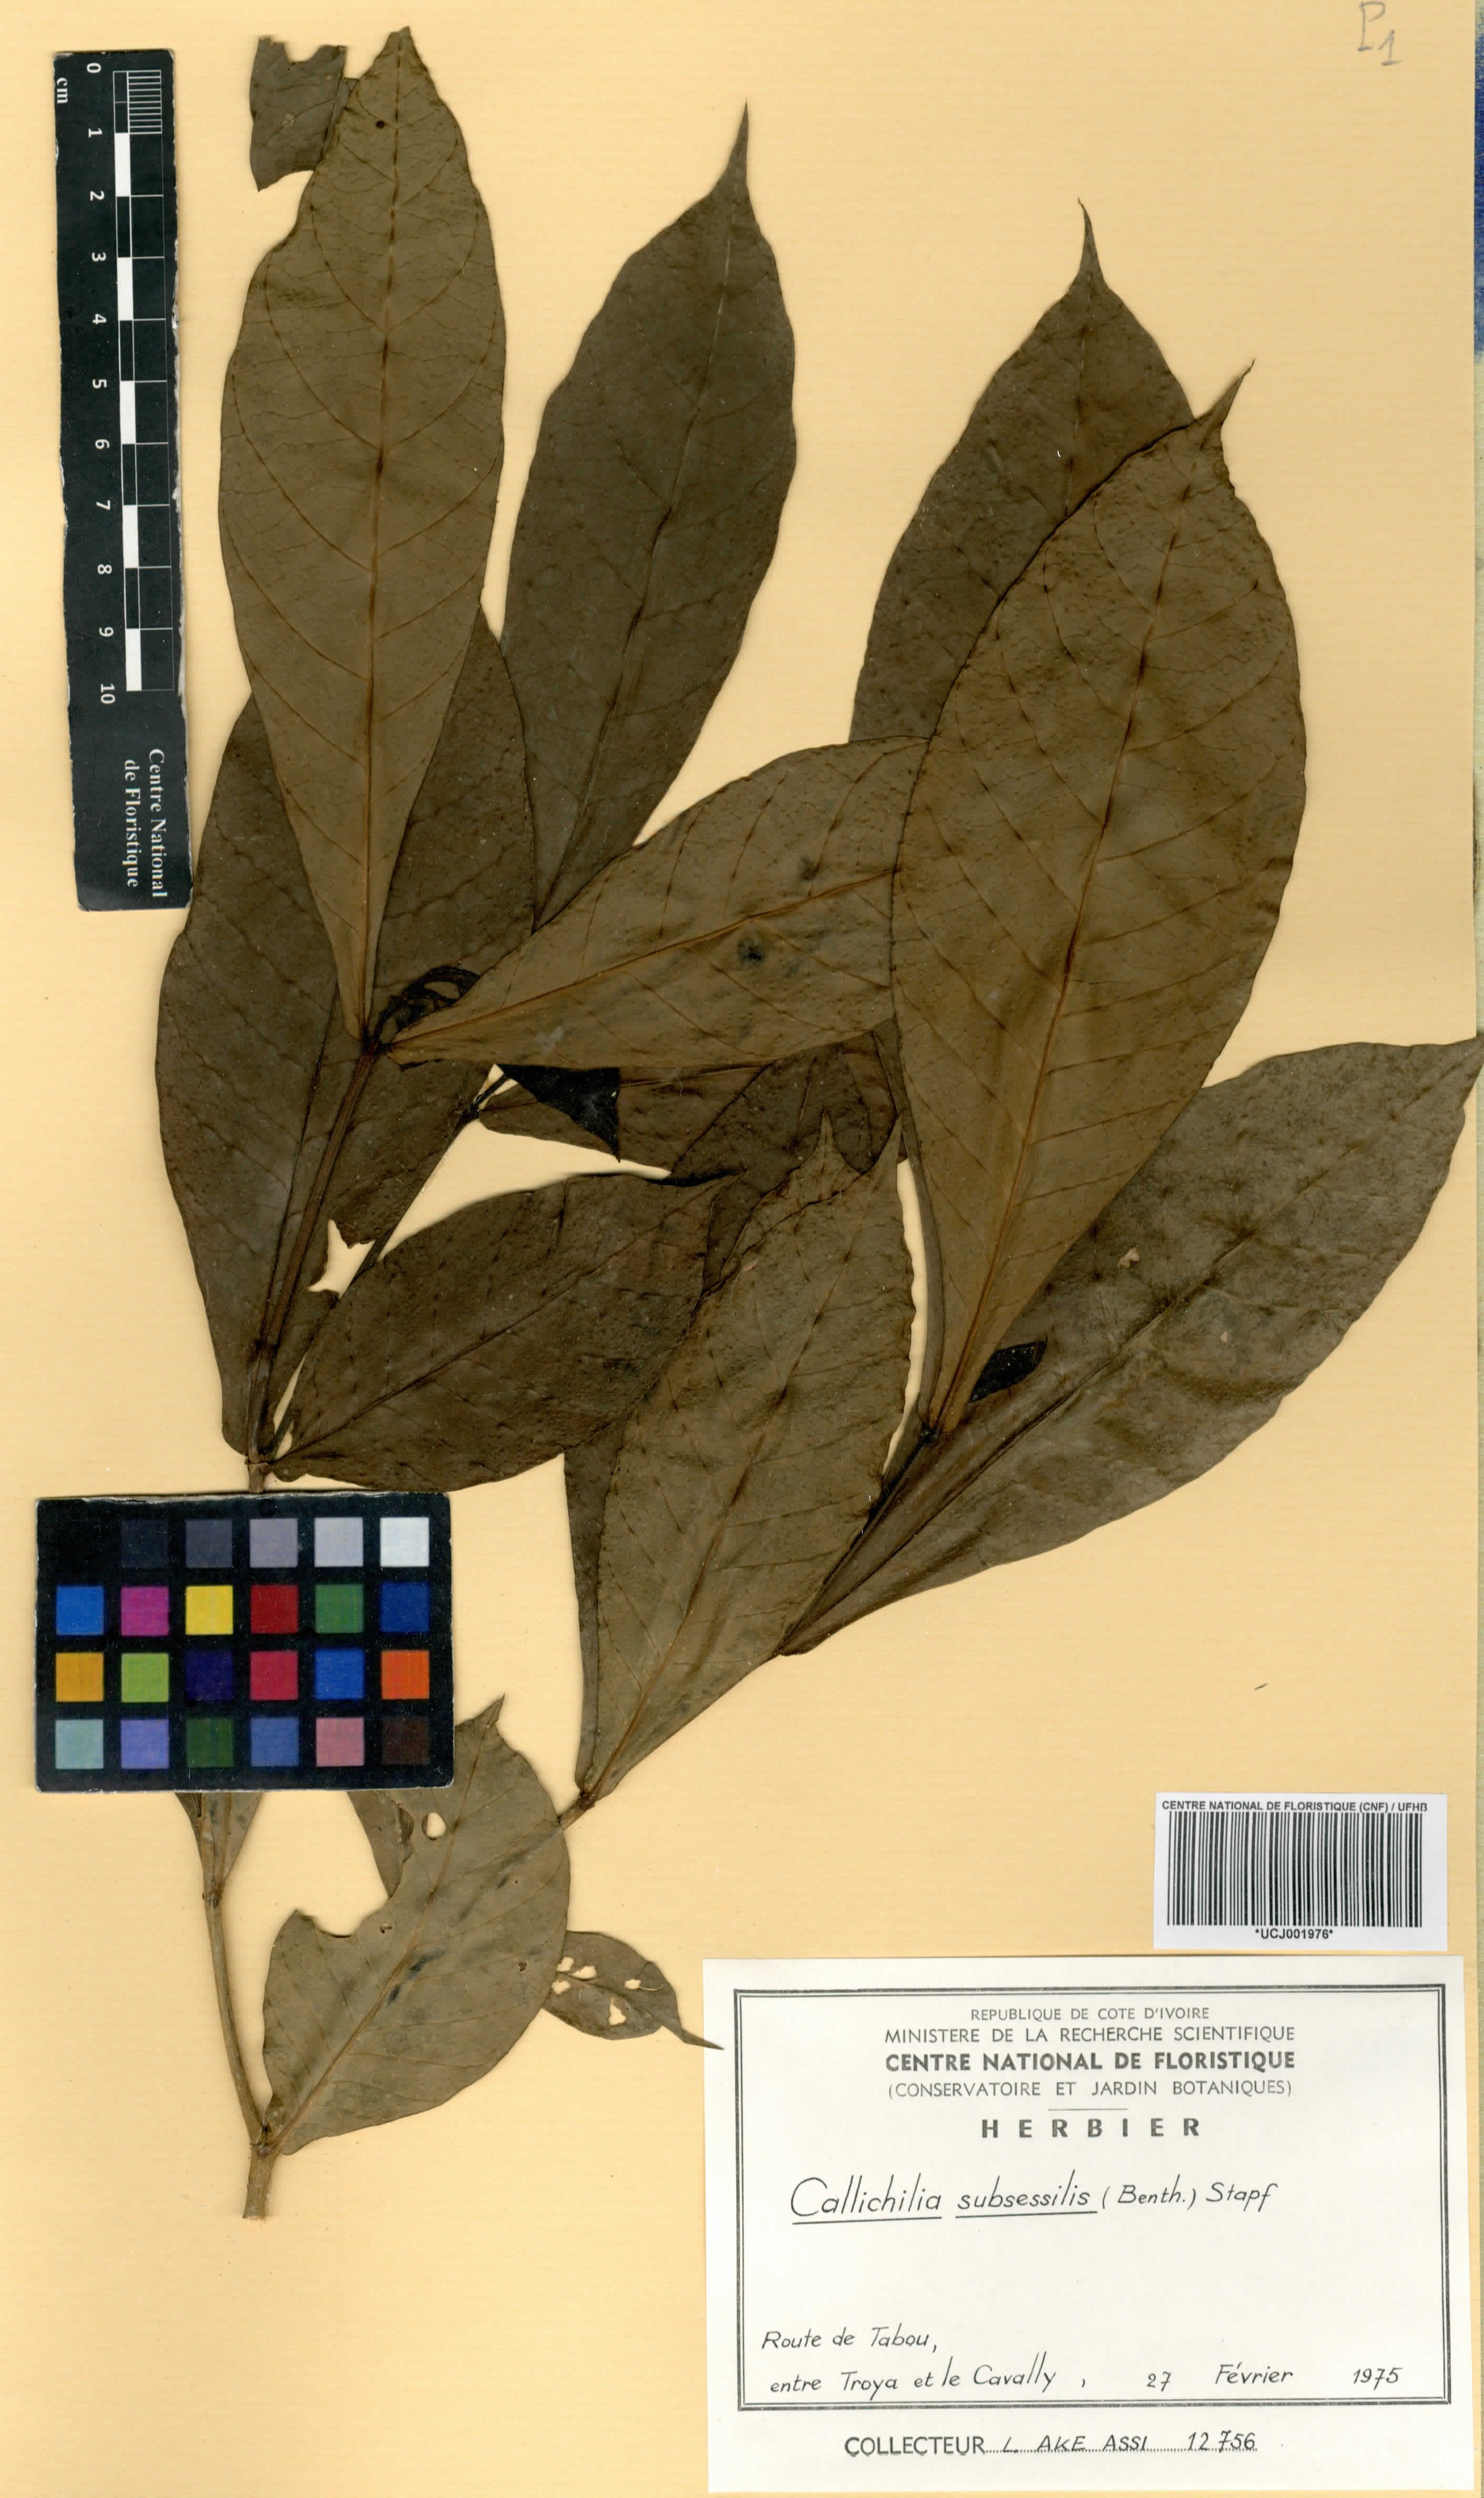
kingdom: Plantae
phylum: Tracheophyta
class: Magnoliopsida
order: Gentianales
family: Apocynaceae
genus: Callichilia
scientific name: Callichilia subsessilis
